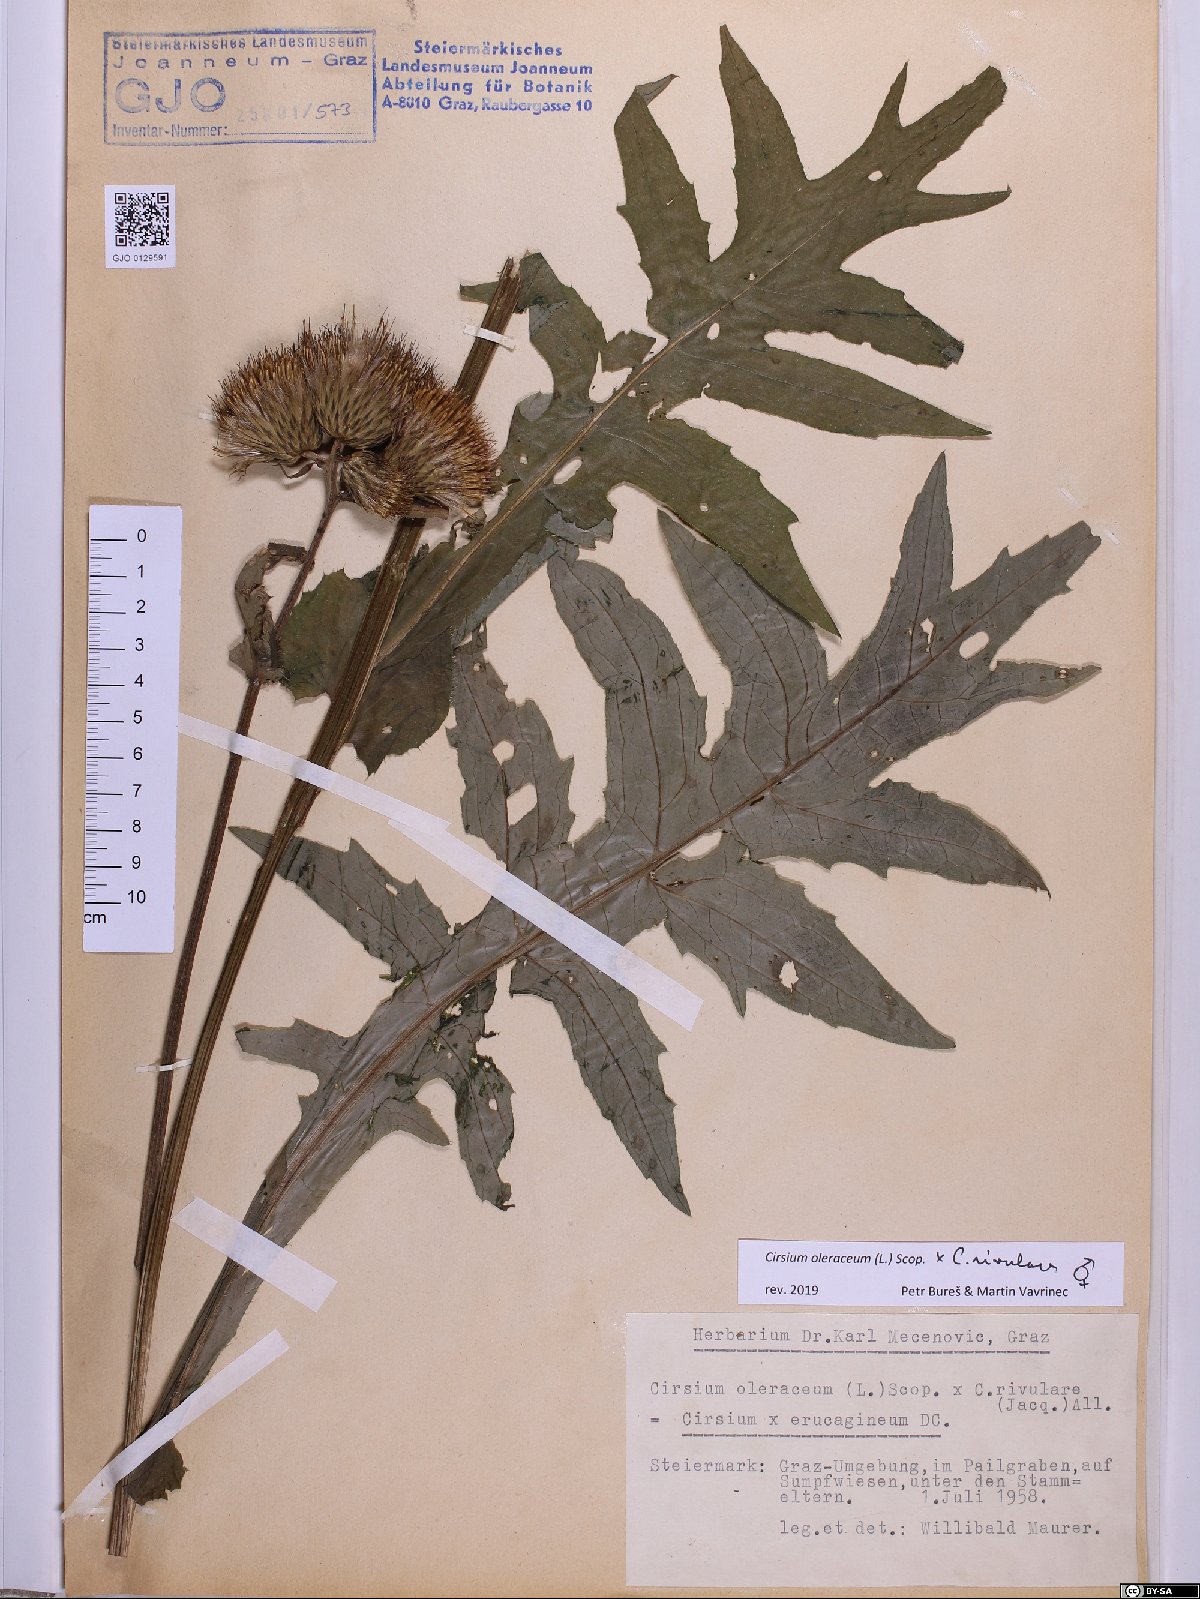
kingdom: Plantae
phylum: Tracheophyta
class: Magnoliopsida
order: Asterales
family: Asteraceae
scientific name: Asteraceae
